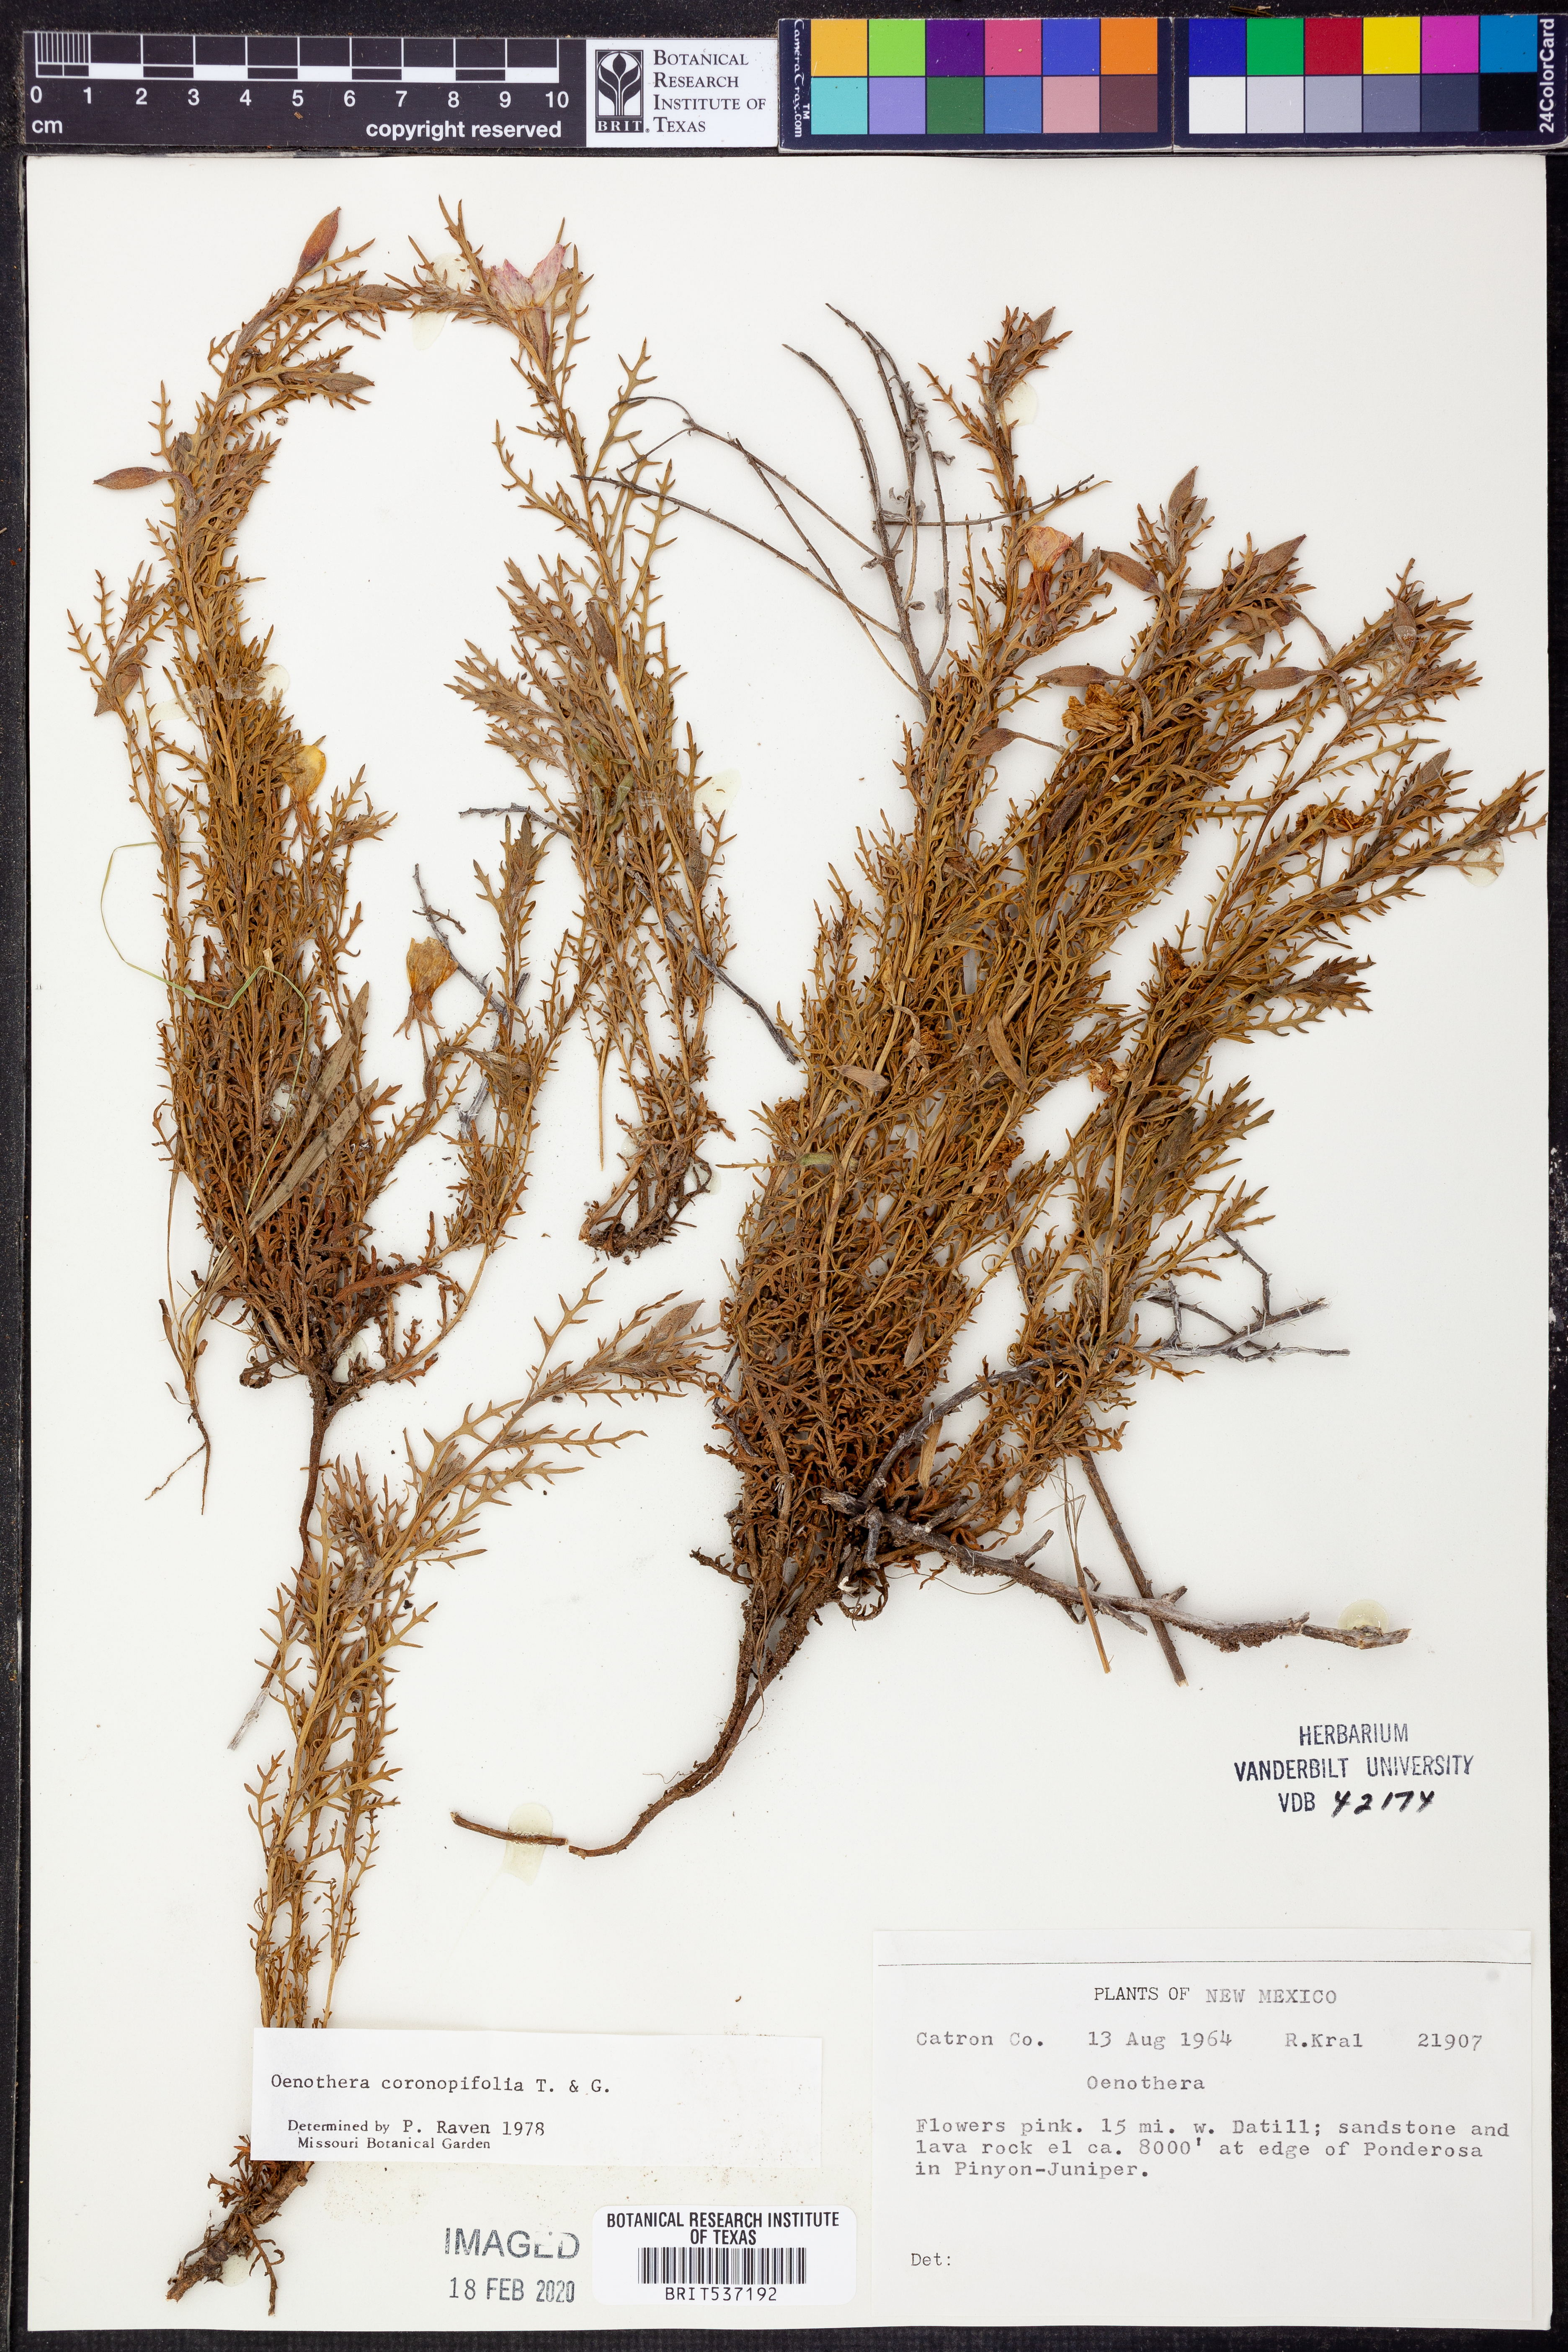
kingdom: Plantae
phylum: Tracheophyta
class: Magnoliopsida
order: Myrtales
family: Onagraceae
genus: Oenothera
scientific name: Oenothera coronopifolia
